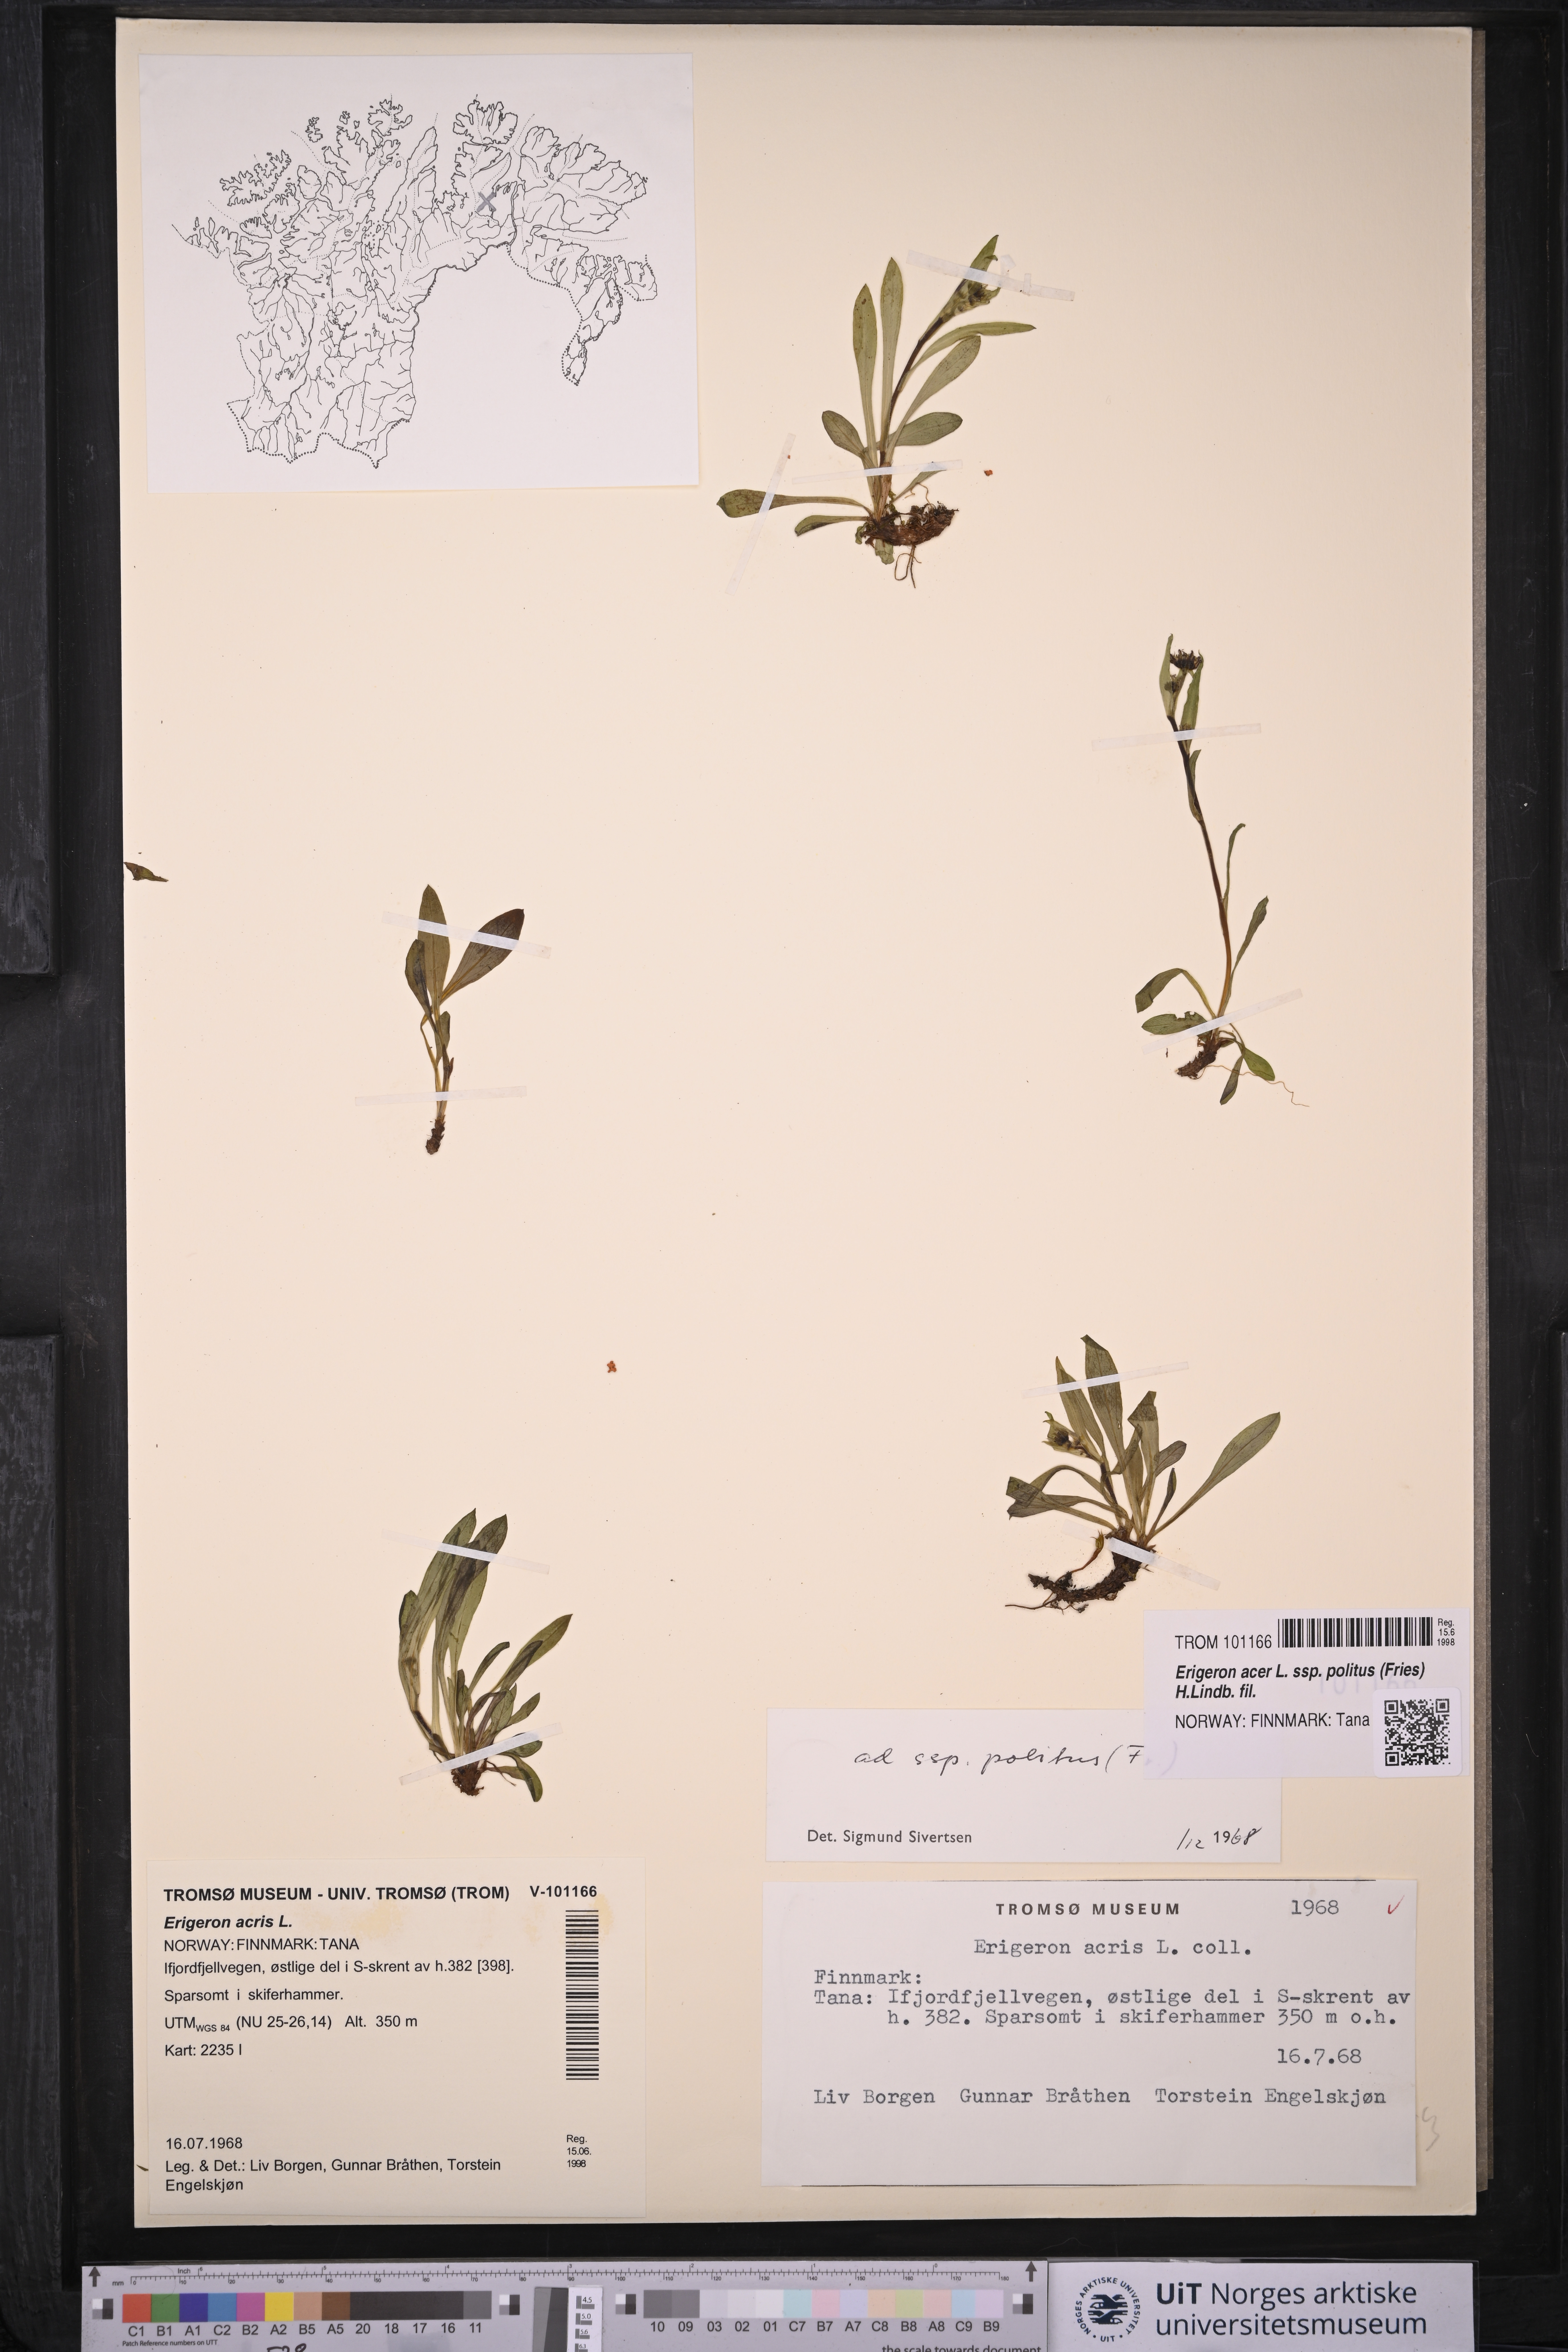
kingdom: Plantae
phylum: Tracheophyta
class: Magnoliopsida
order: Asterales
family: Asteraceae
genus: Erigeron
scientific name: Erigeron politus
